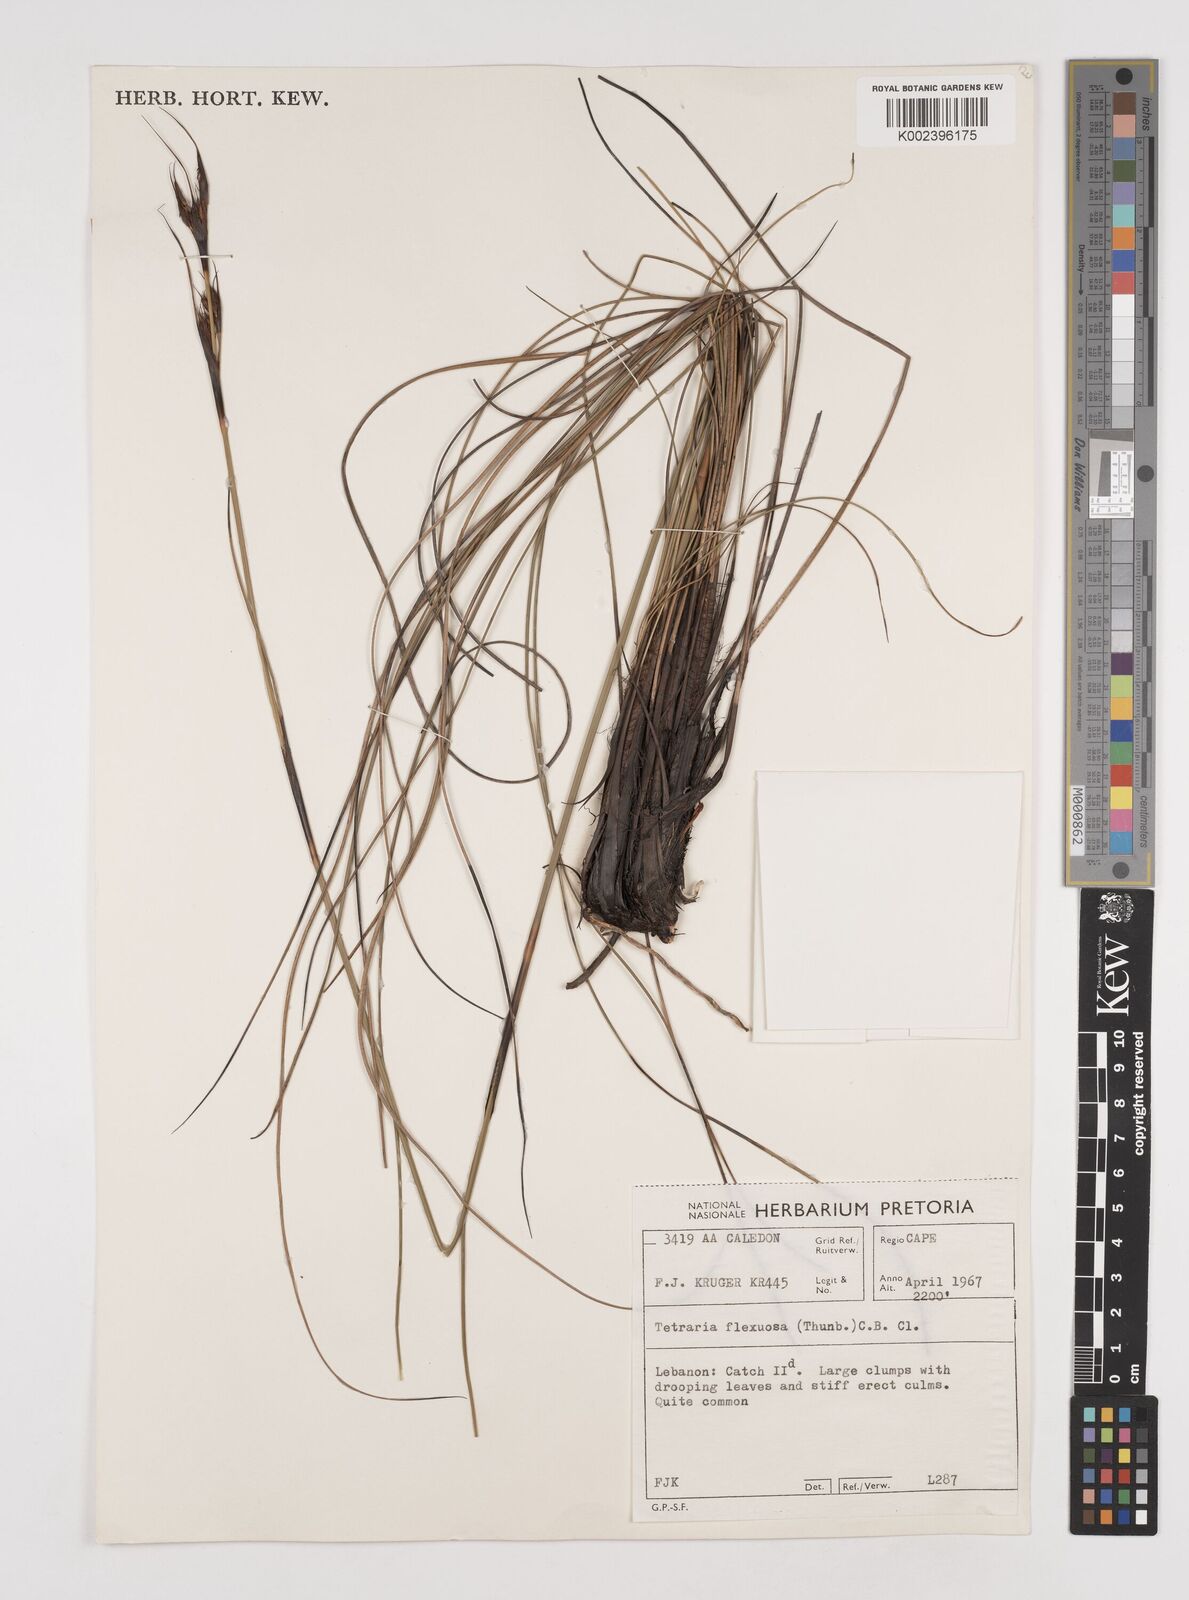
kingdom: Plantae
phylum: Tracheophyta
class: Liliopsida
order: Poales
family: Cyperaceae
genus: Tetraria
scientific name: Tetraria flexuosa
